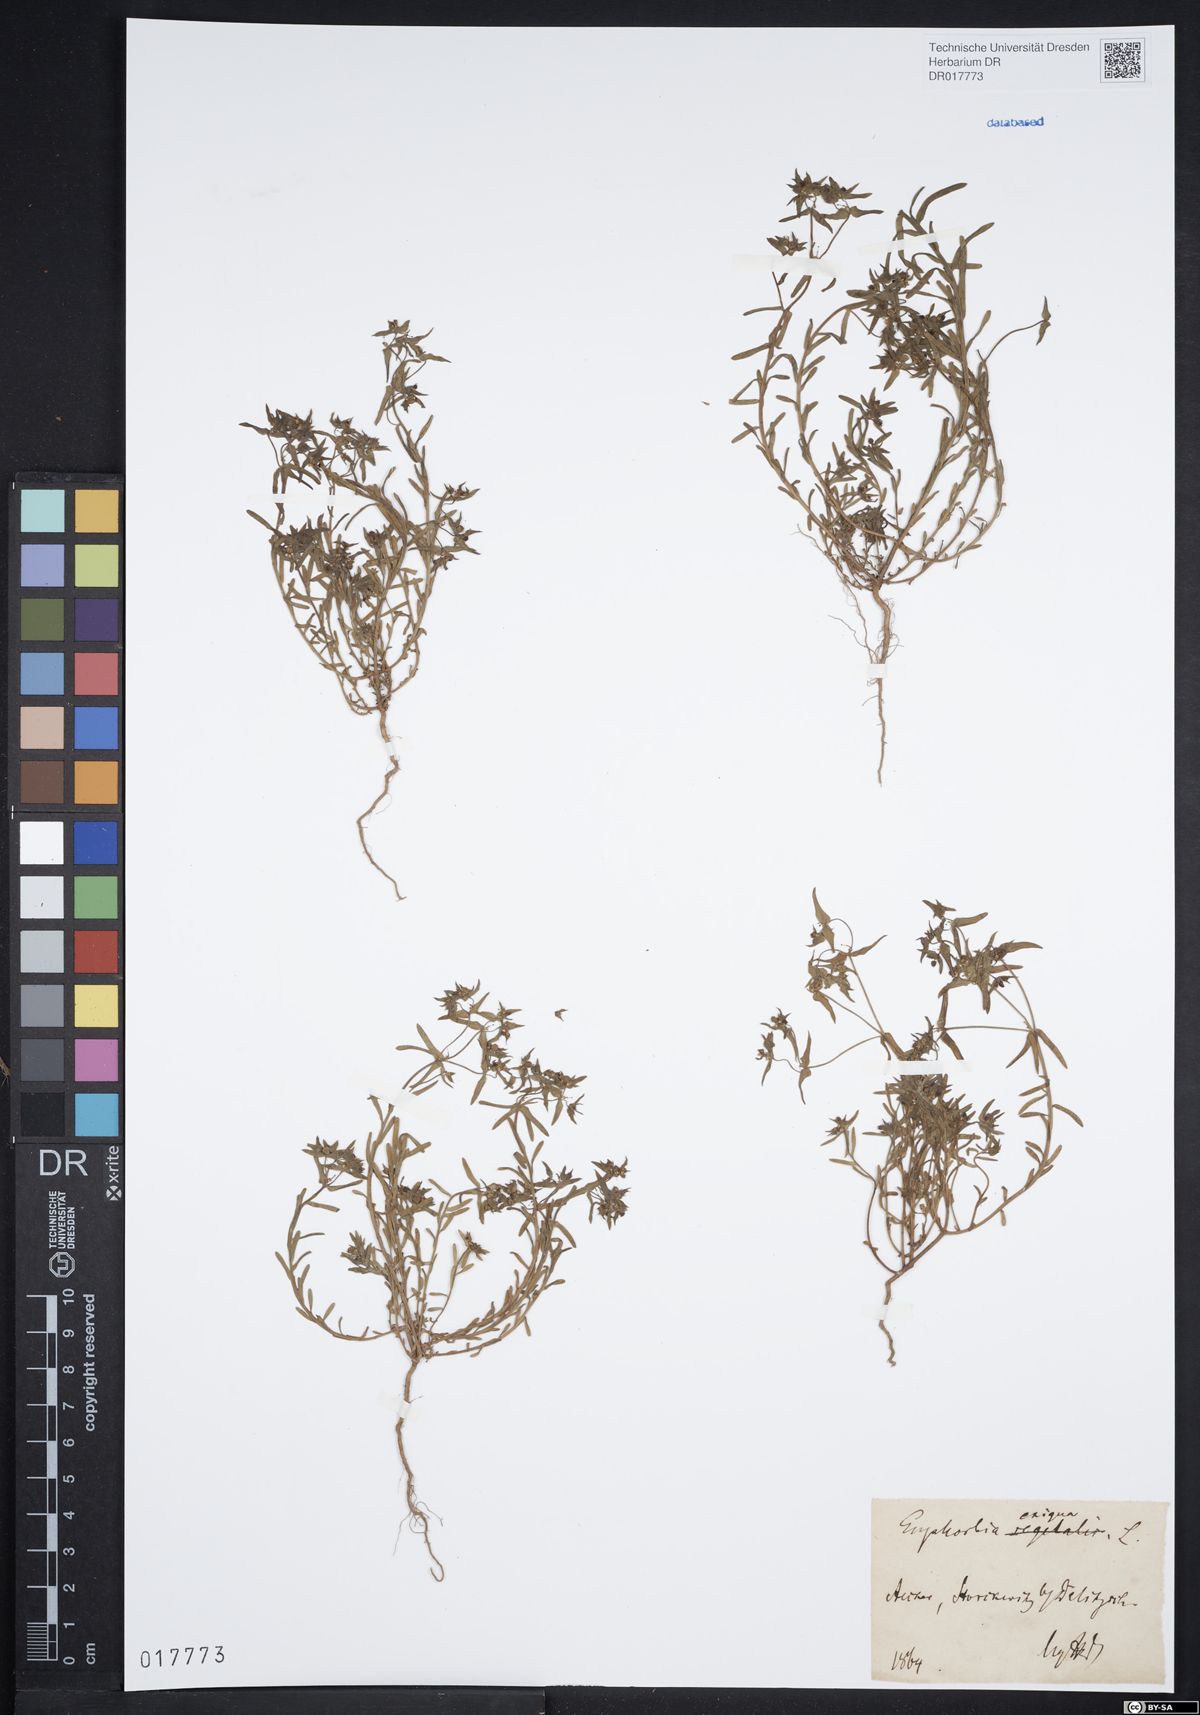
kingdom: Plantae
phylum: Tracheophyta
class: Magnoliopsida
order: Malpighiales
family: Euphorbiaceae
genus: Euphorbia
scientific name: Euphorbia exigua
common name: Dwarf spurge
